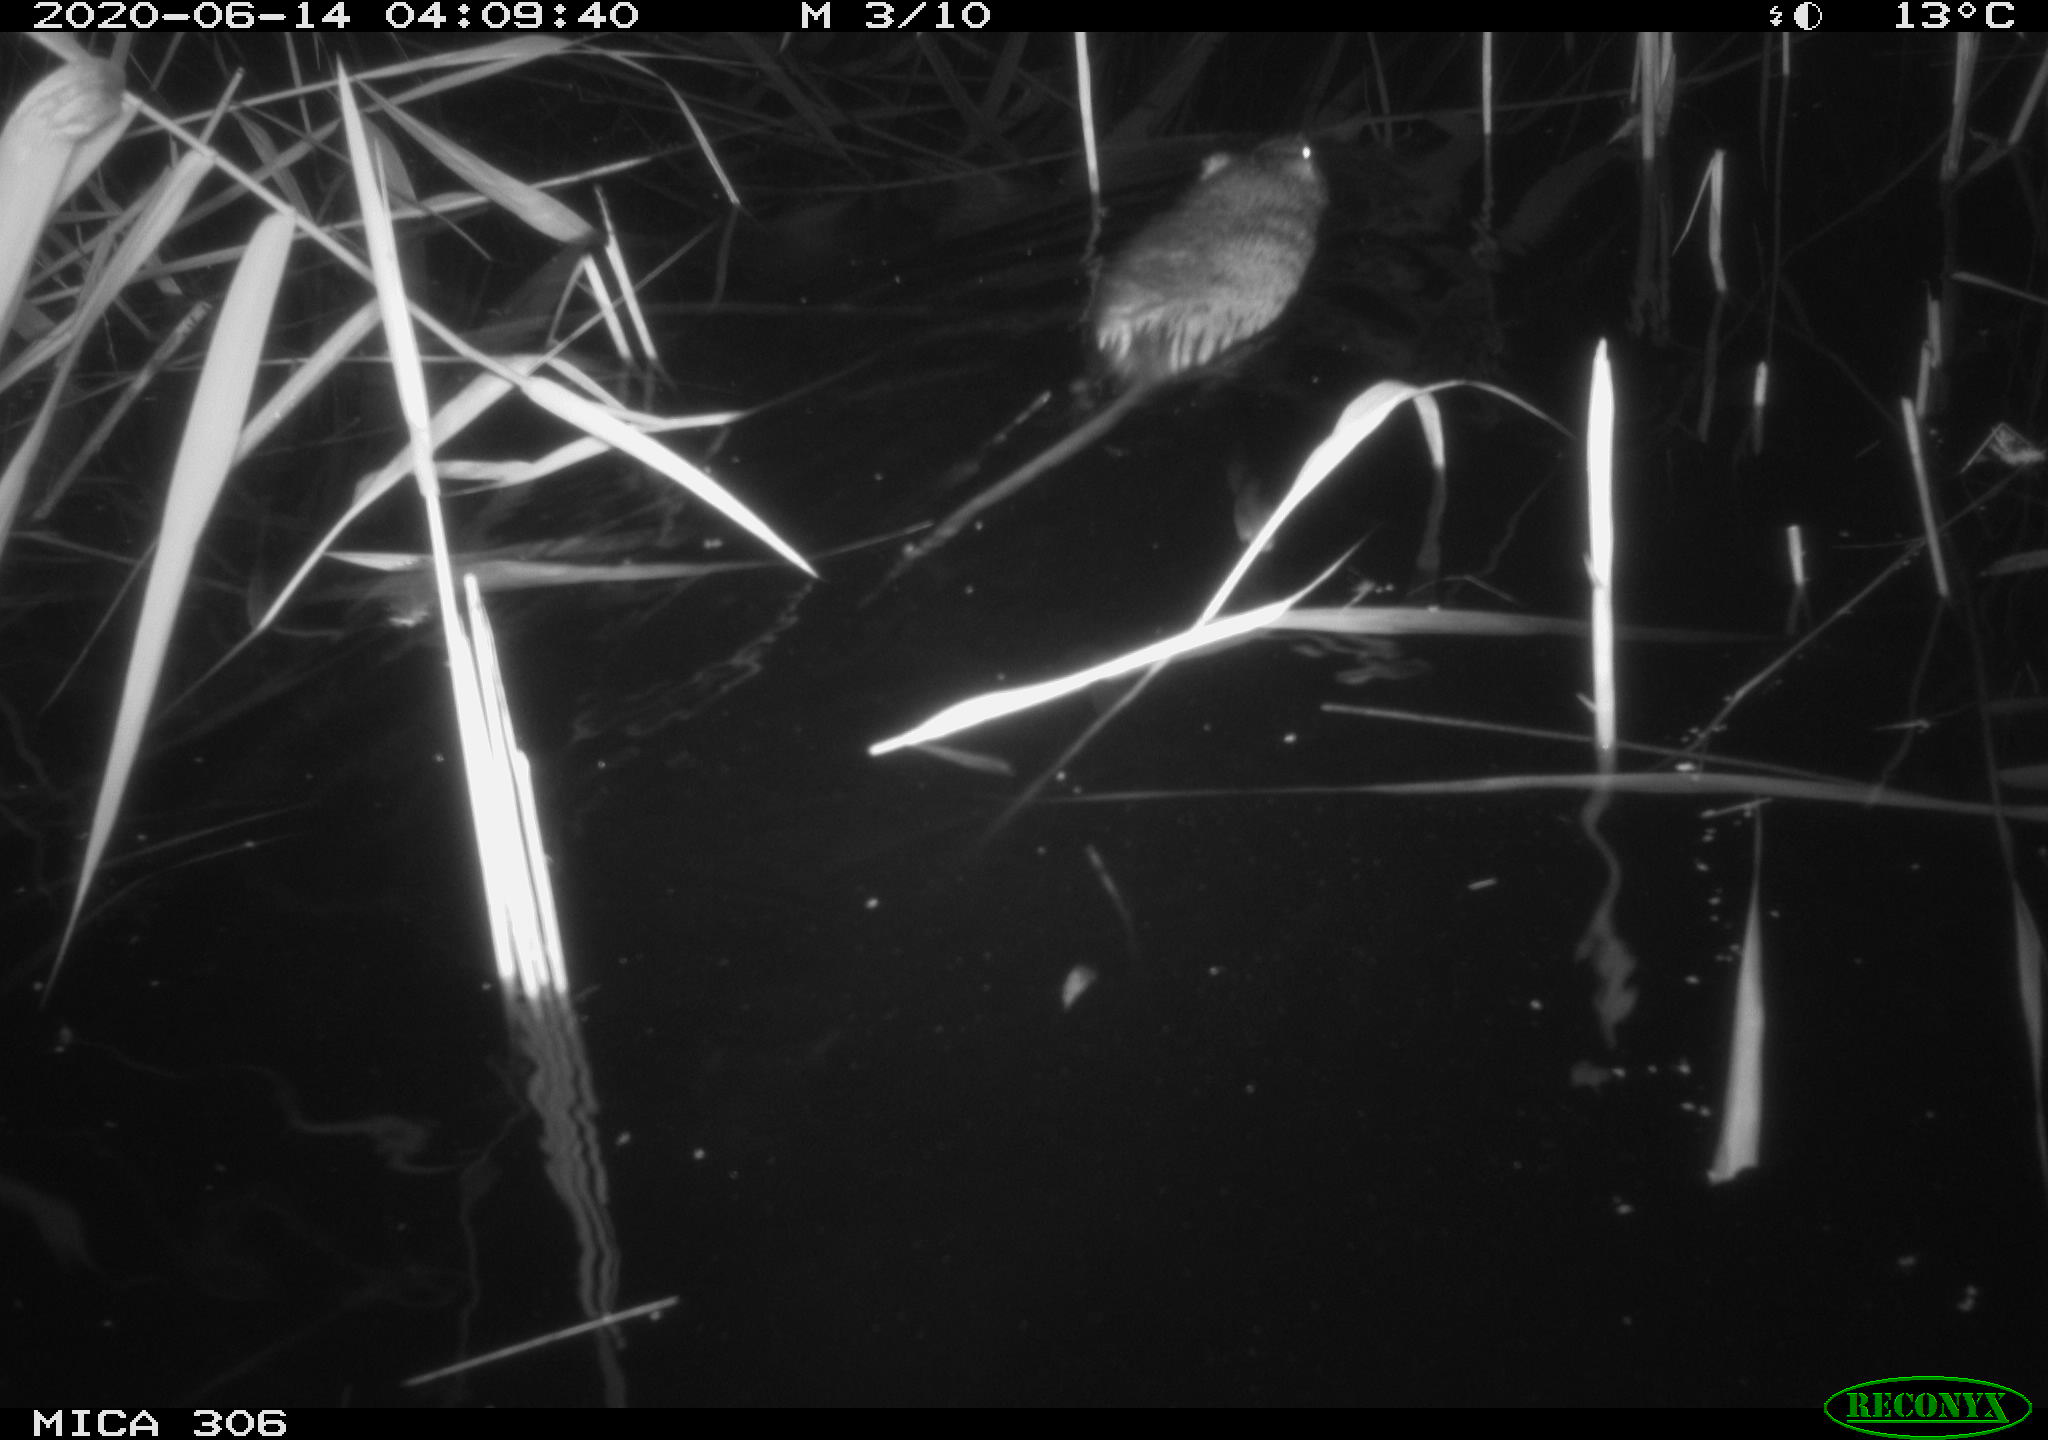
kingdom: Animalia
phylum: Chordata
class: Mammalia
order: Rodentia
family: Muridae
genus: Rattus
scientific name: Rattus norvegicus
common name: Brown rat
